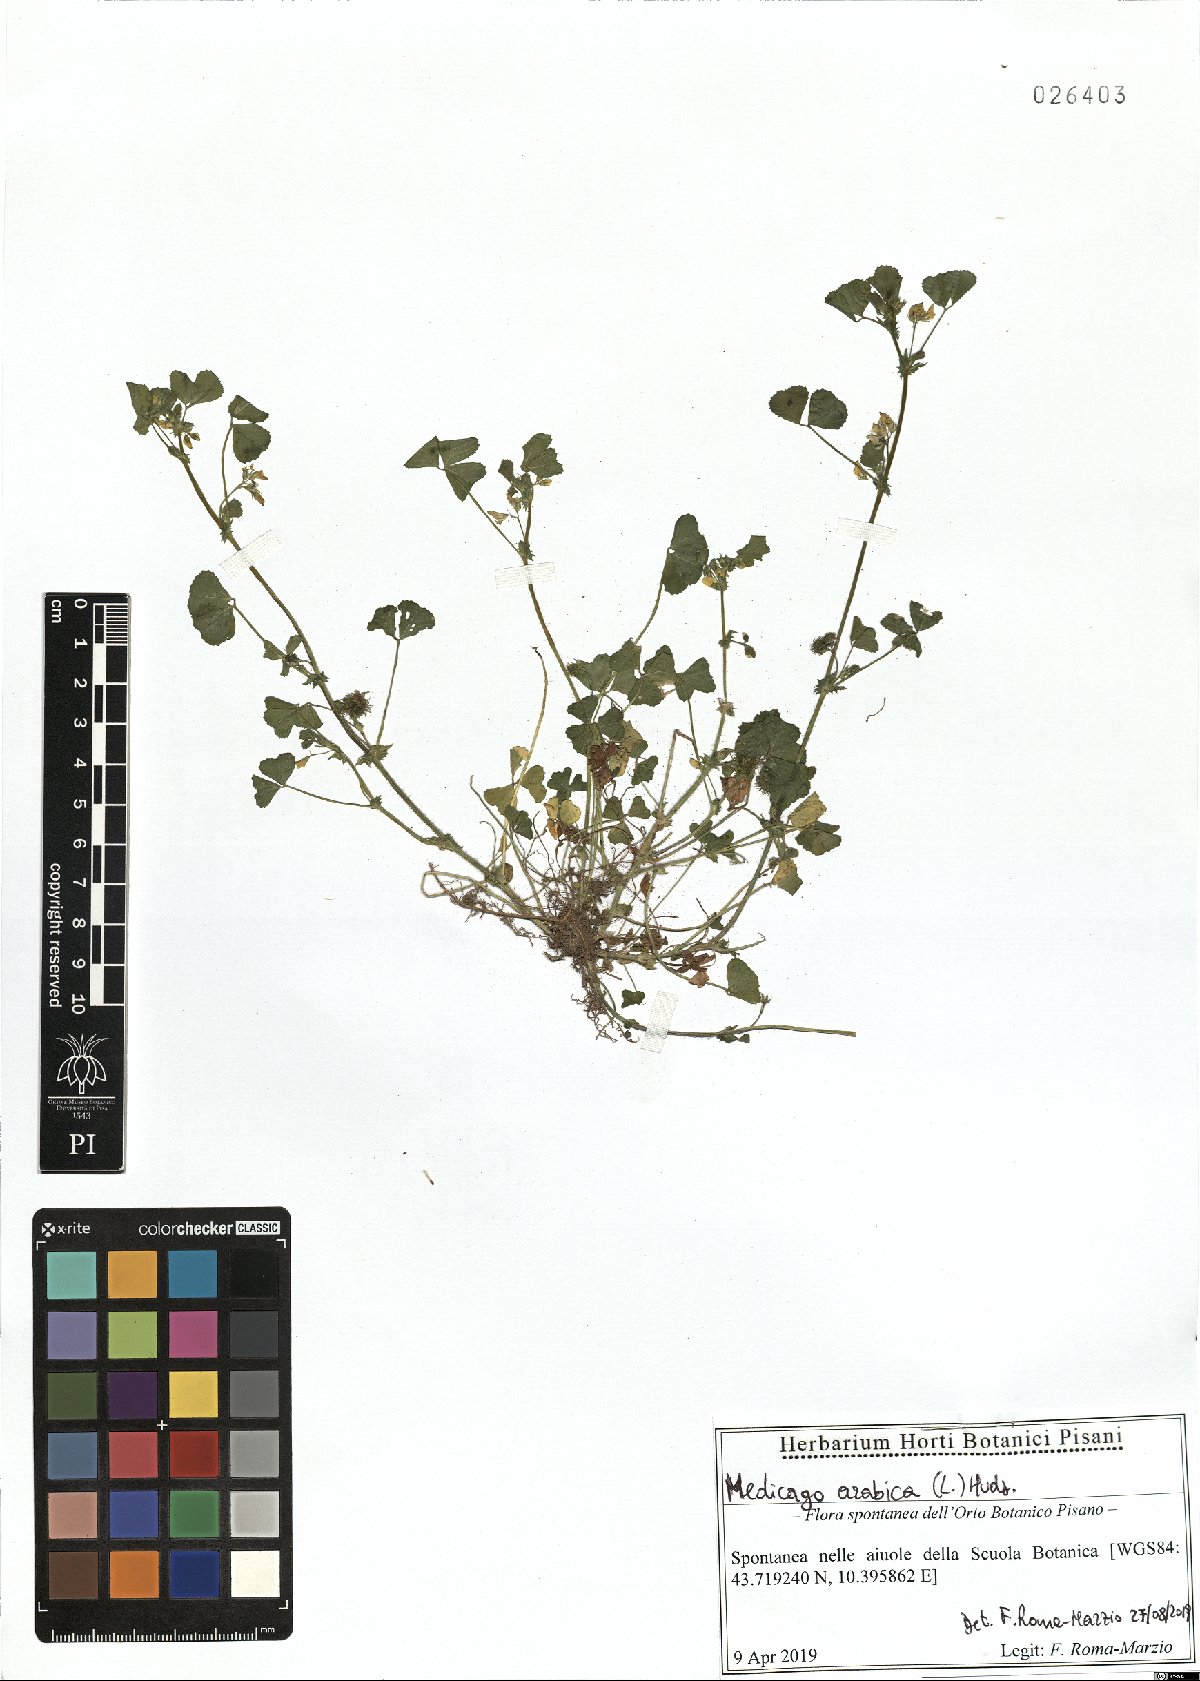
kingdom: Plantae
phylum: Tracheophyta
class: Magnoliopsida
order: Fabales
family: Fabaceae
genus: Medicago
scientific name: Medicago arabica
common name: Spotted medick
